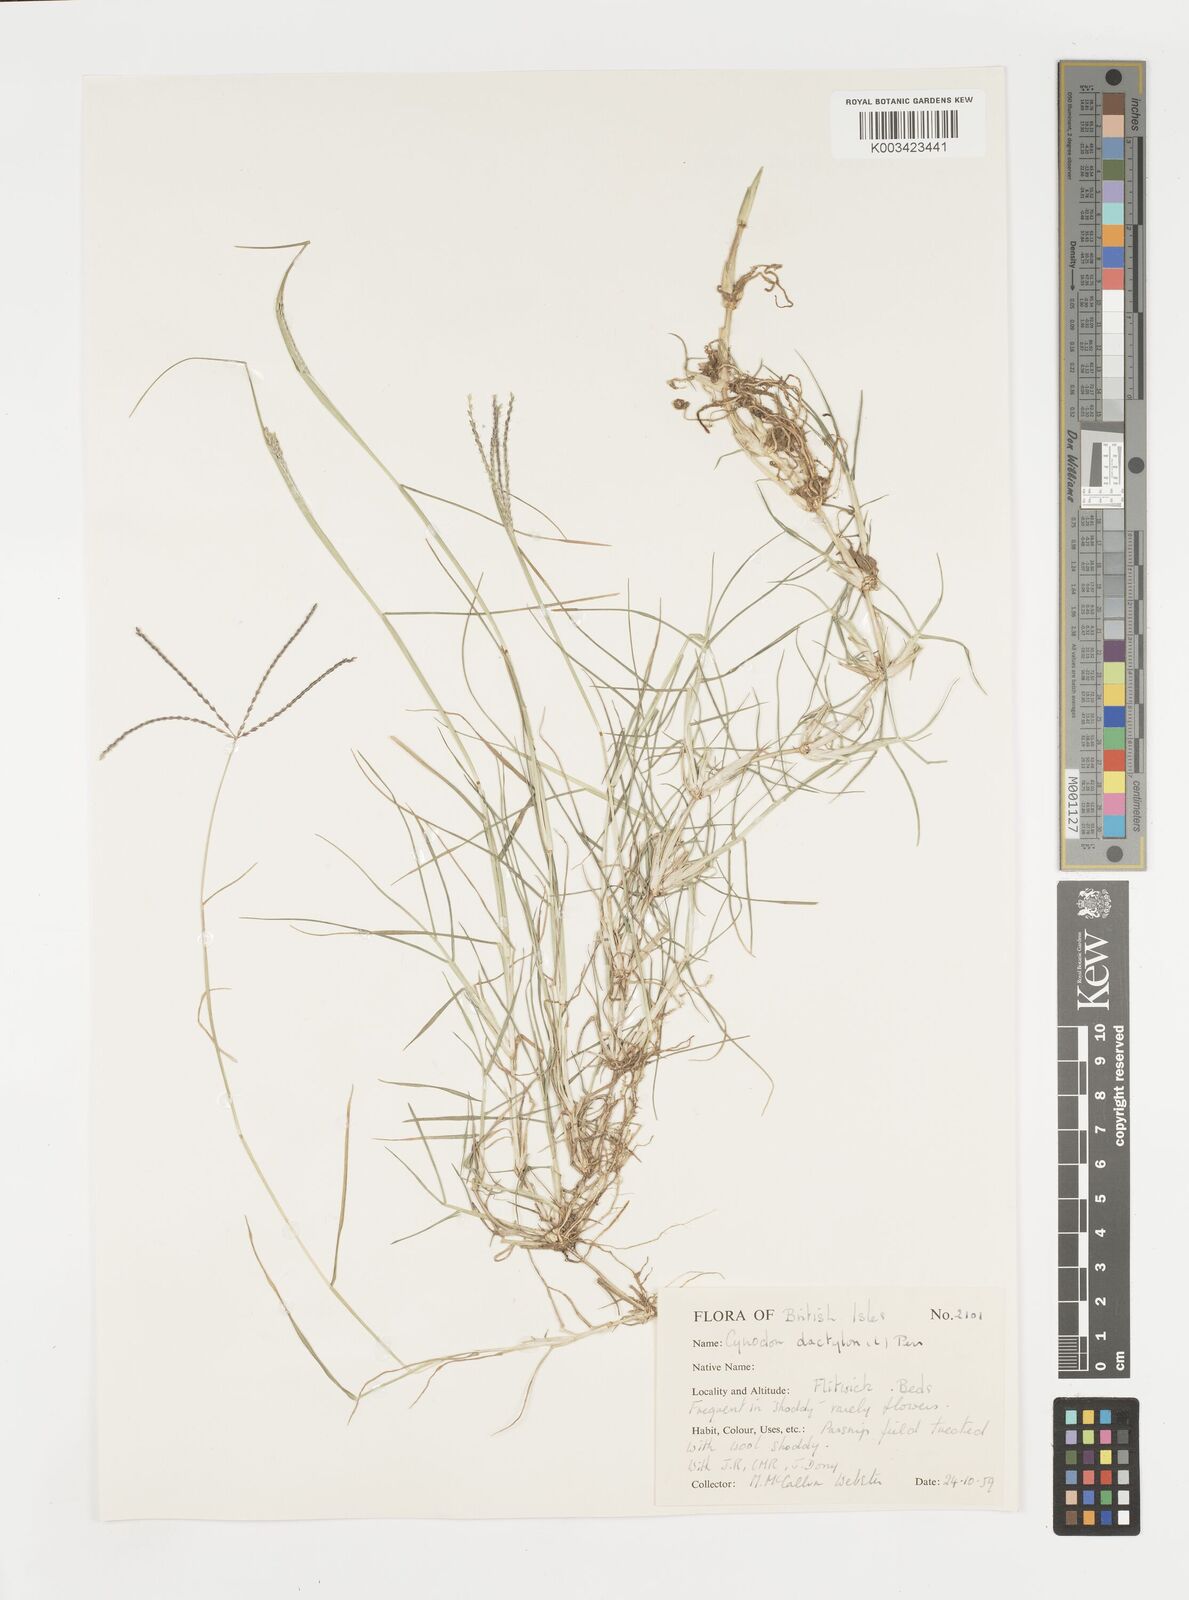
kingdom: Plantae
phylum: Tracheophyta
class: Liliopsida
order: Poales
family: Poaceae
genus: Cynodon
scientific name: Cynodon dactylon
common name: Bermuda grass
